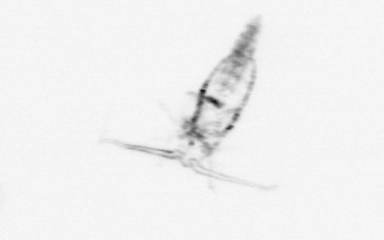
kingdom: Animalia
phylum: Arthropoda
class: Copepoda
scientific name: Copepoda
